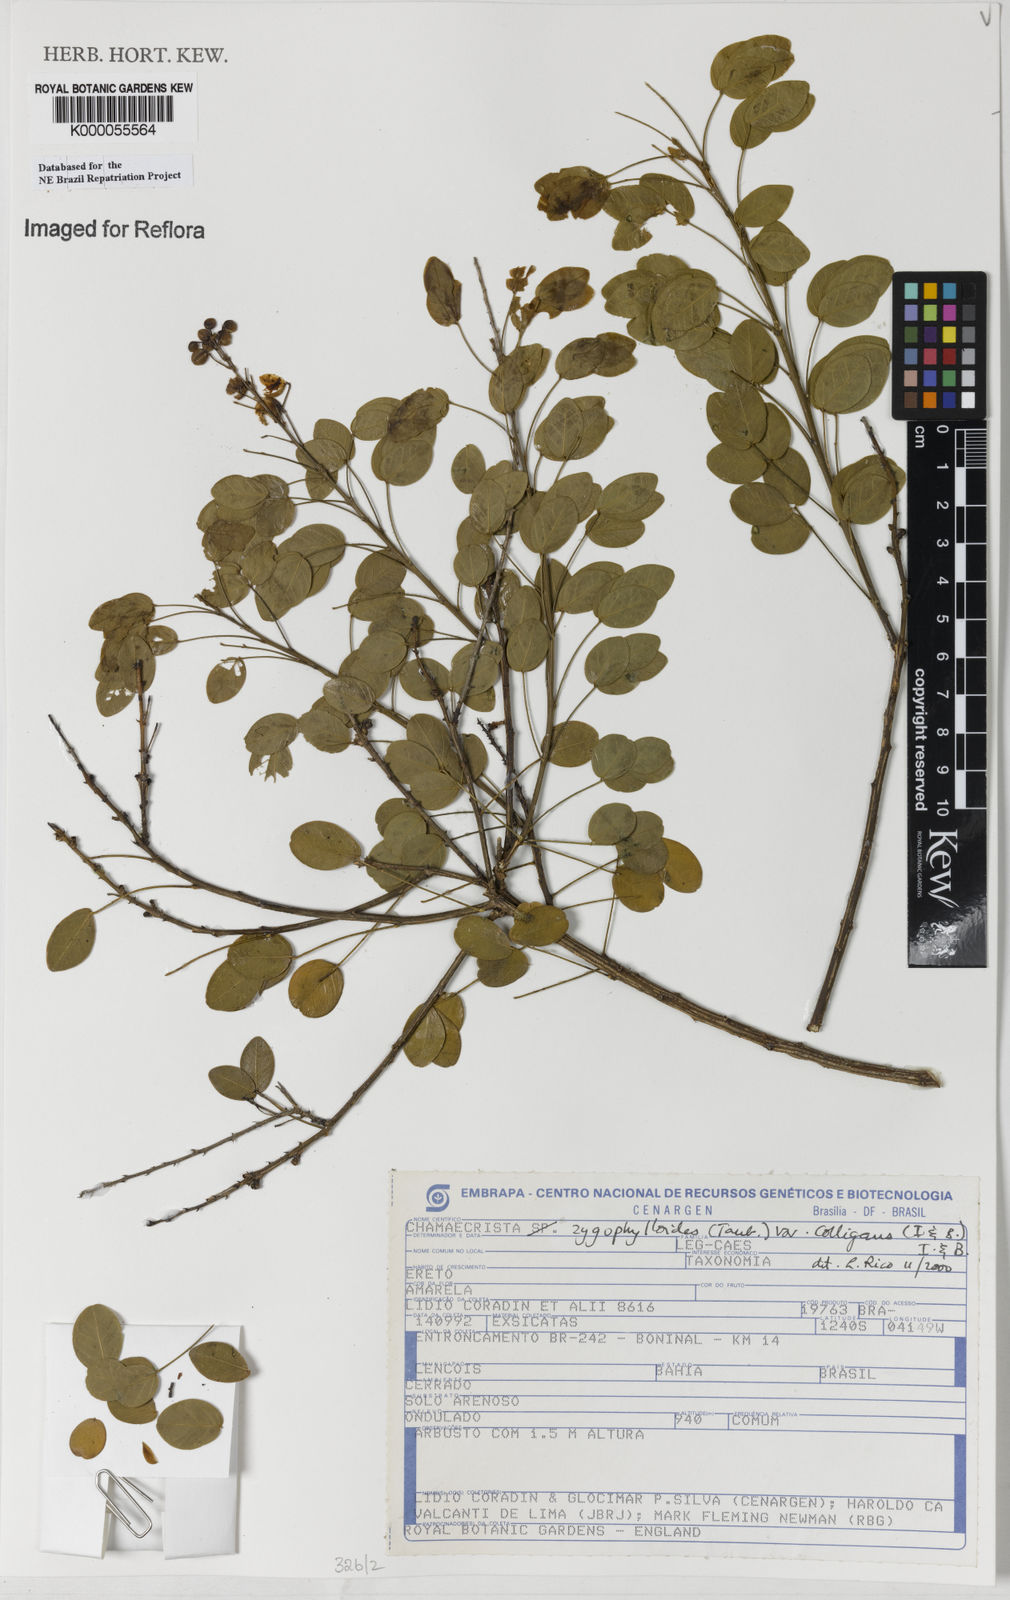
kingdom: Plantae
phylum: Tracheophyta
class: Magnoliopsida
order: Fabales
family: Fabaceae
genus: Chamaecrista
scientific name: Chamaecrista zygophylloides
